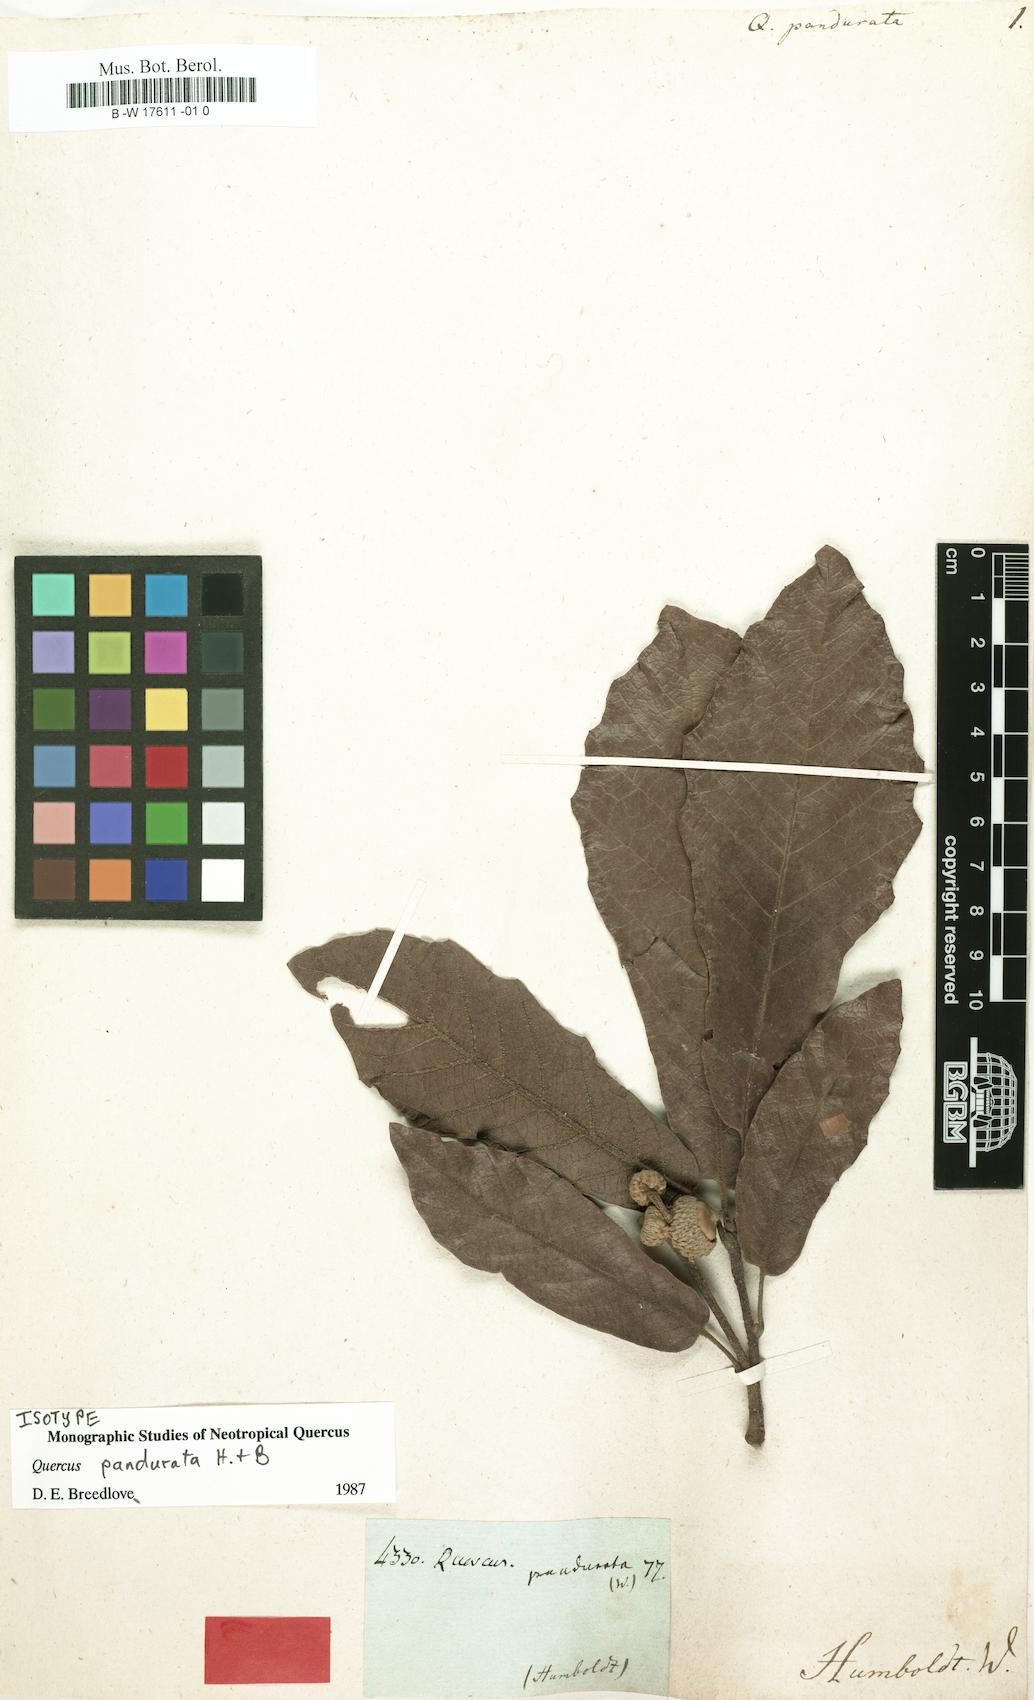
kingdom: Plantae
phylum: Tracheophyta
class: Magnoliopsida
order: Fagales
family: Fagaceae
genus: Quercus
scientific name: Quercus
